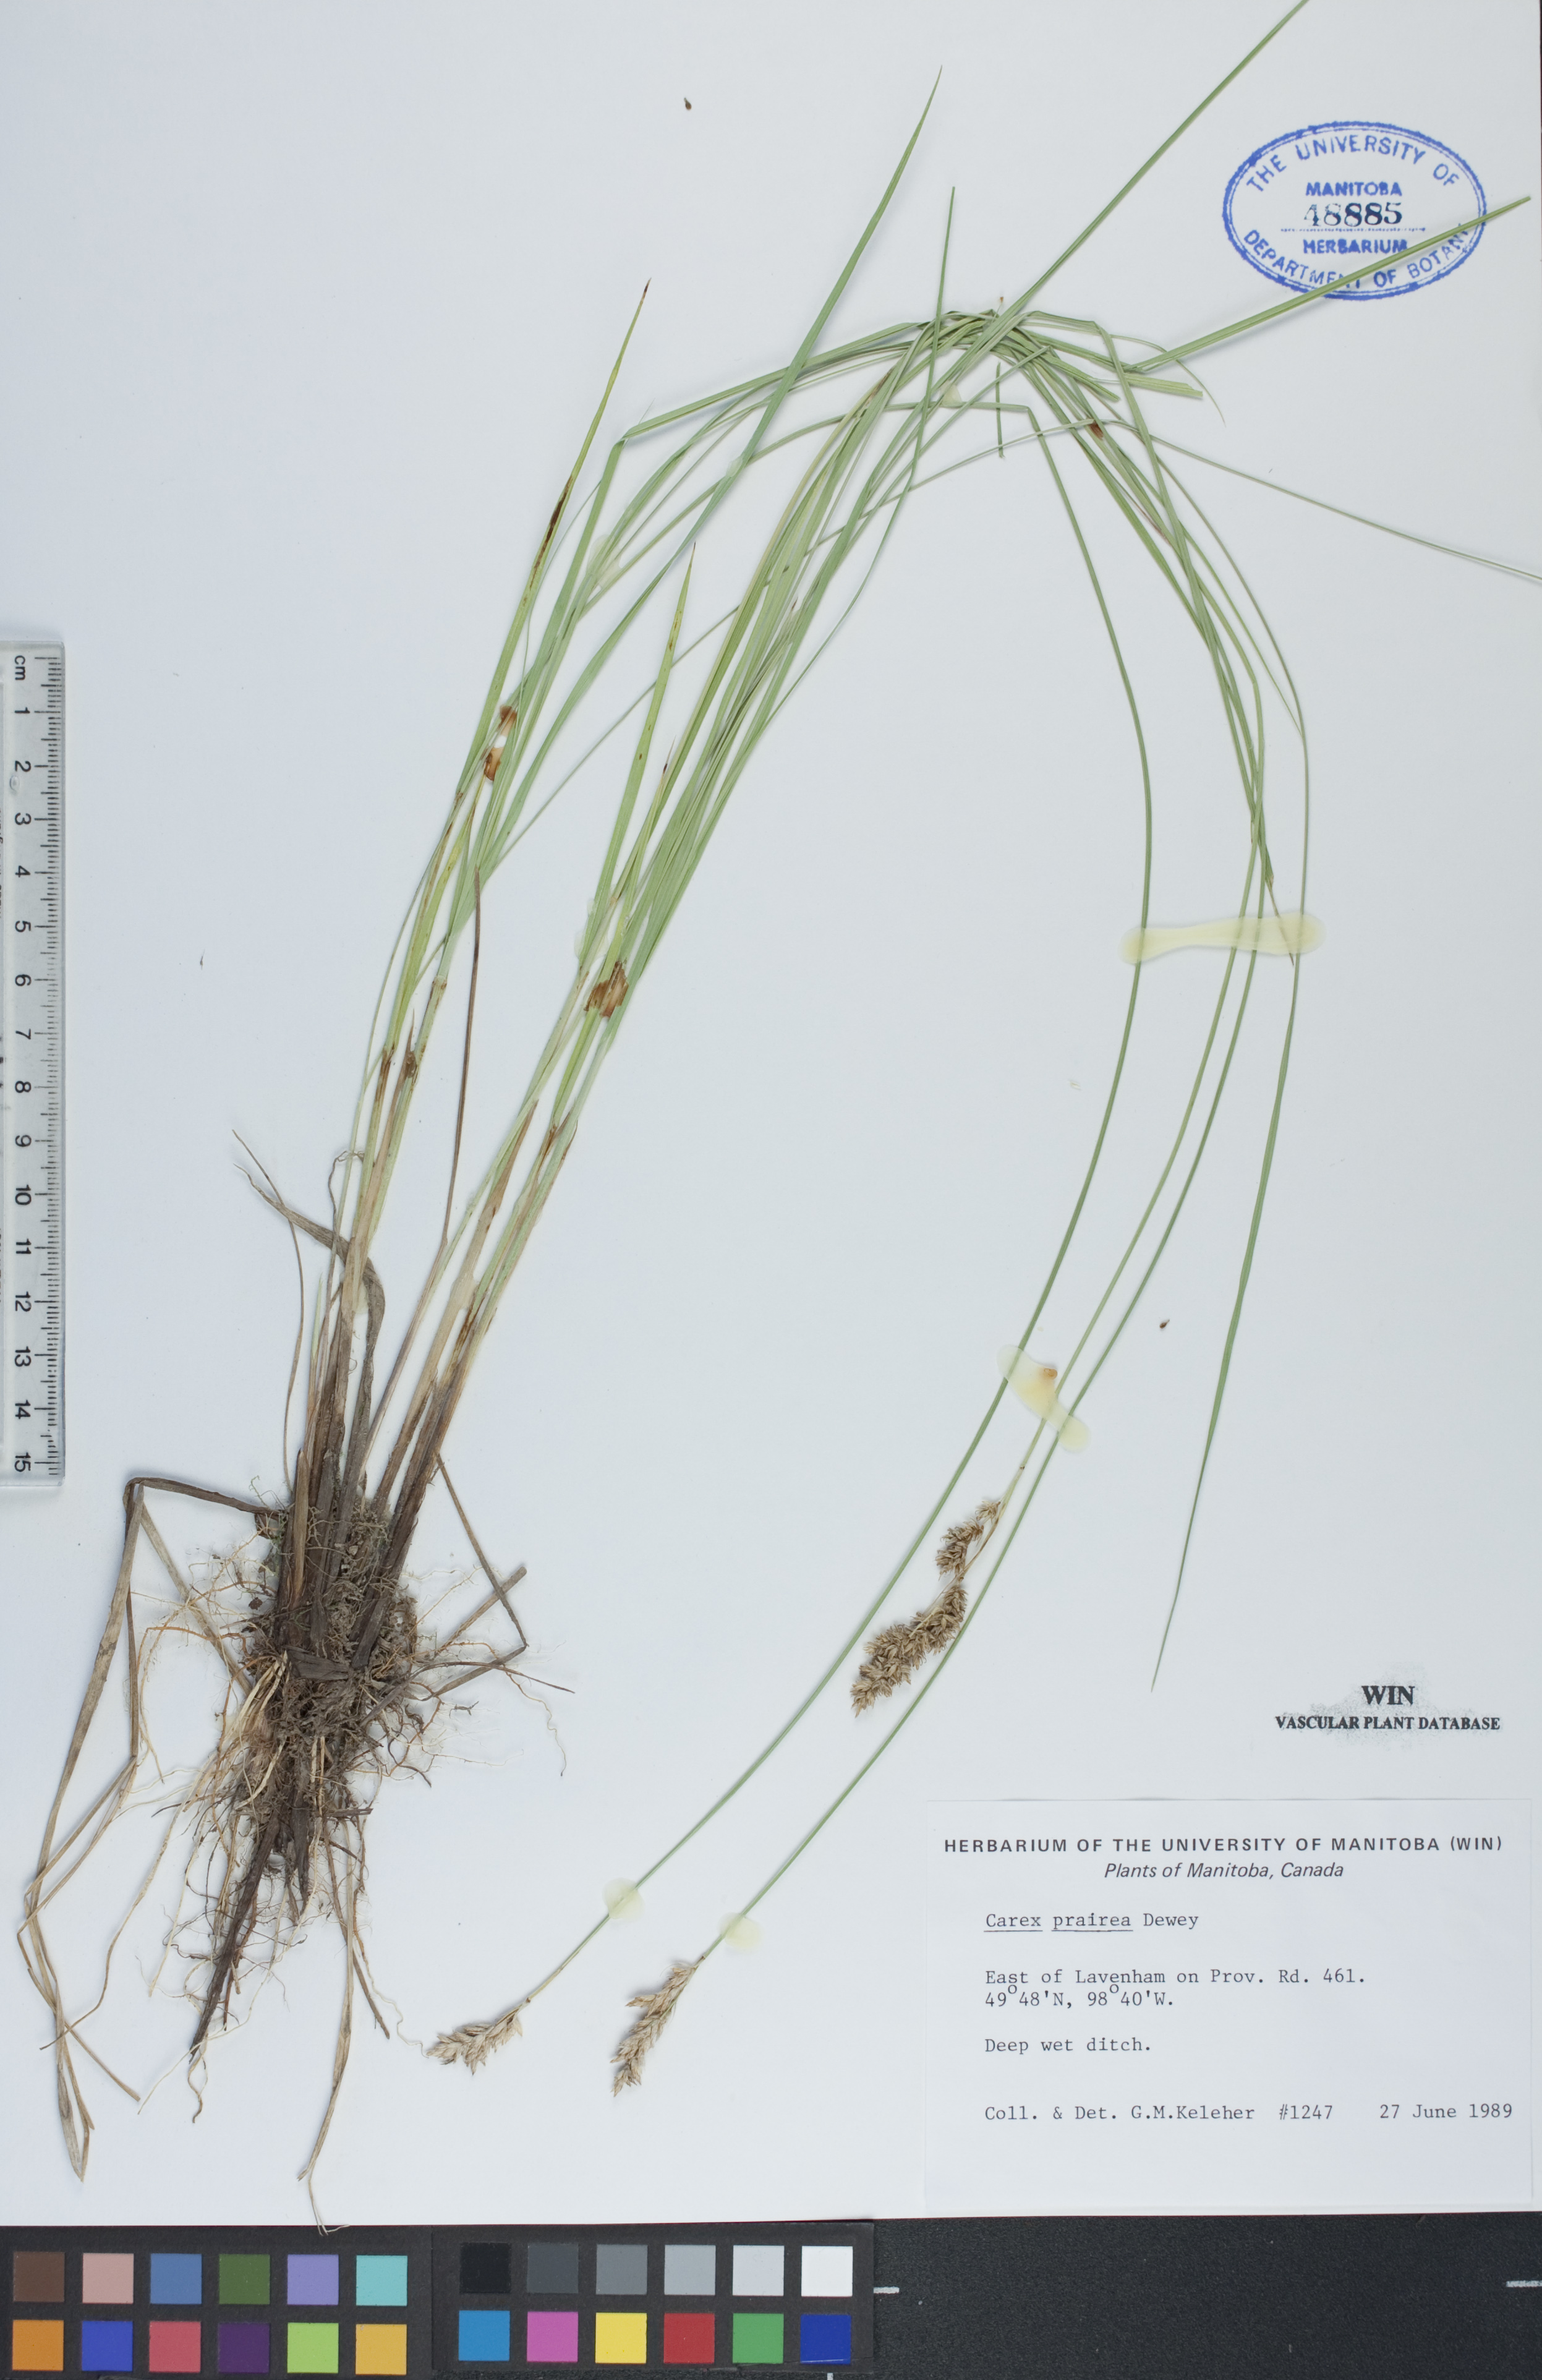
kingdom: Plantae
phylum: Tracheophyta
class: Liliopsida
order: Poales
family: Cyperaceae
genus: Carex
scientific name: Carex prairea
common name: Prairie sedge
